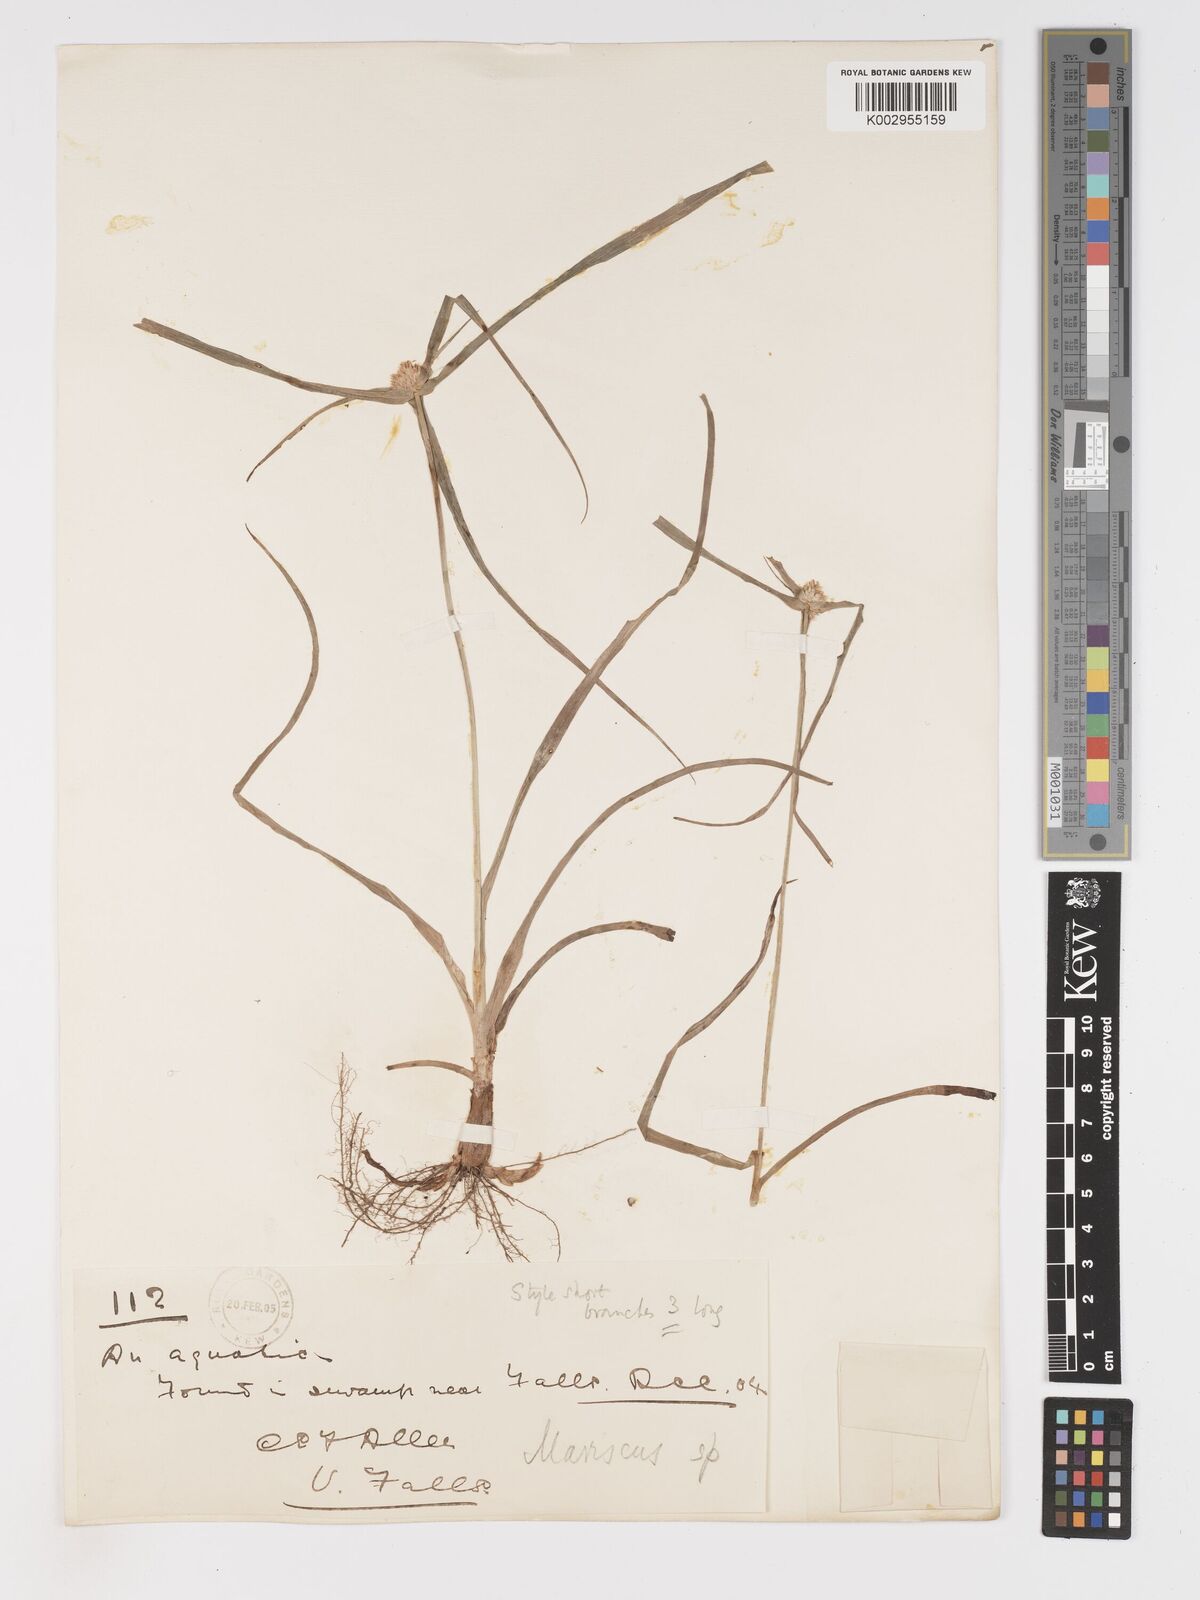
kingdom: Plantae
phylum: Tracheophyta
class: Liliopsida
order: Poales
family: Cyperaceae
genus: Cyperus
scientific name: Cyperus dubius
